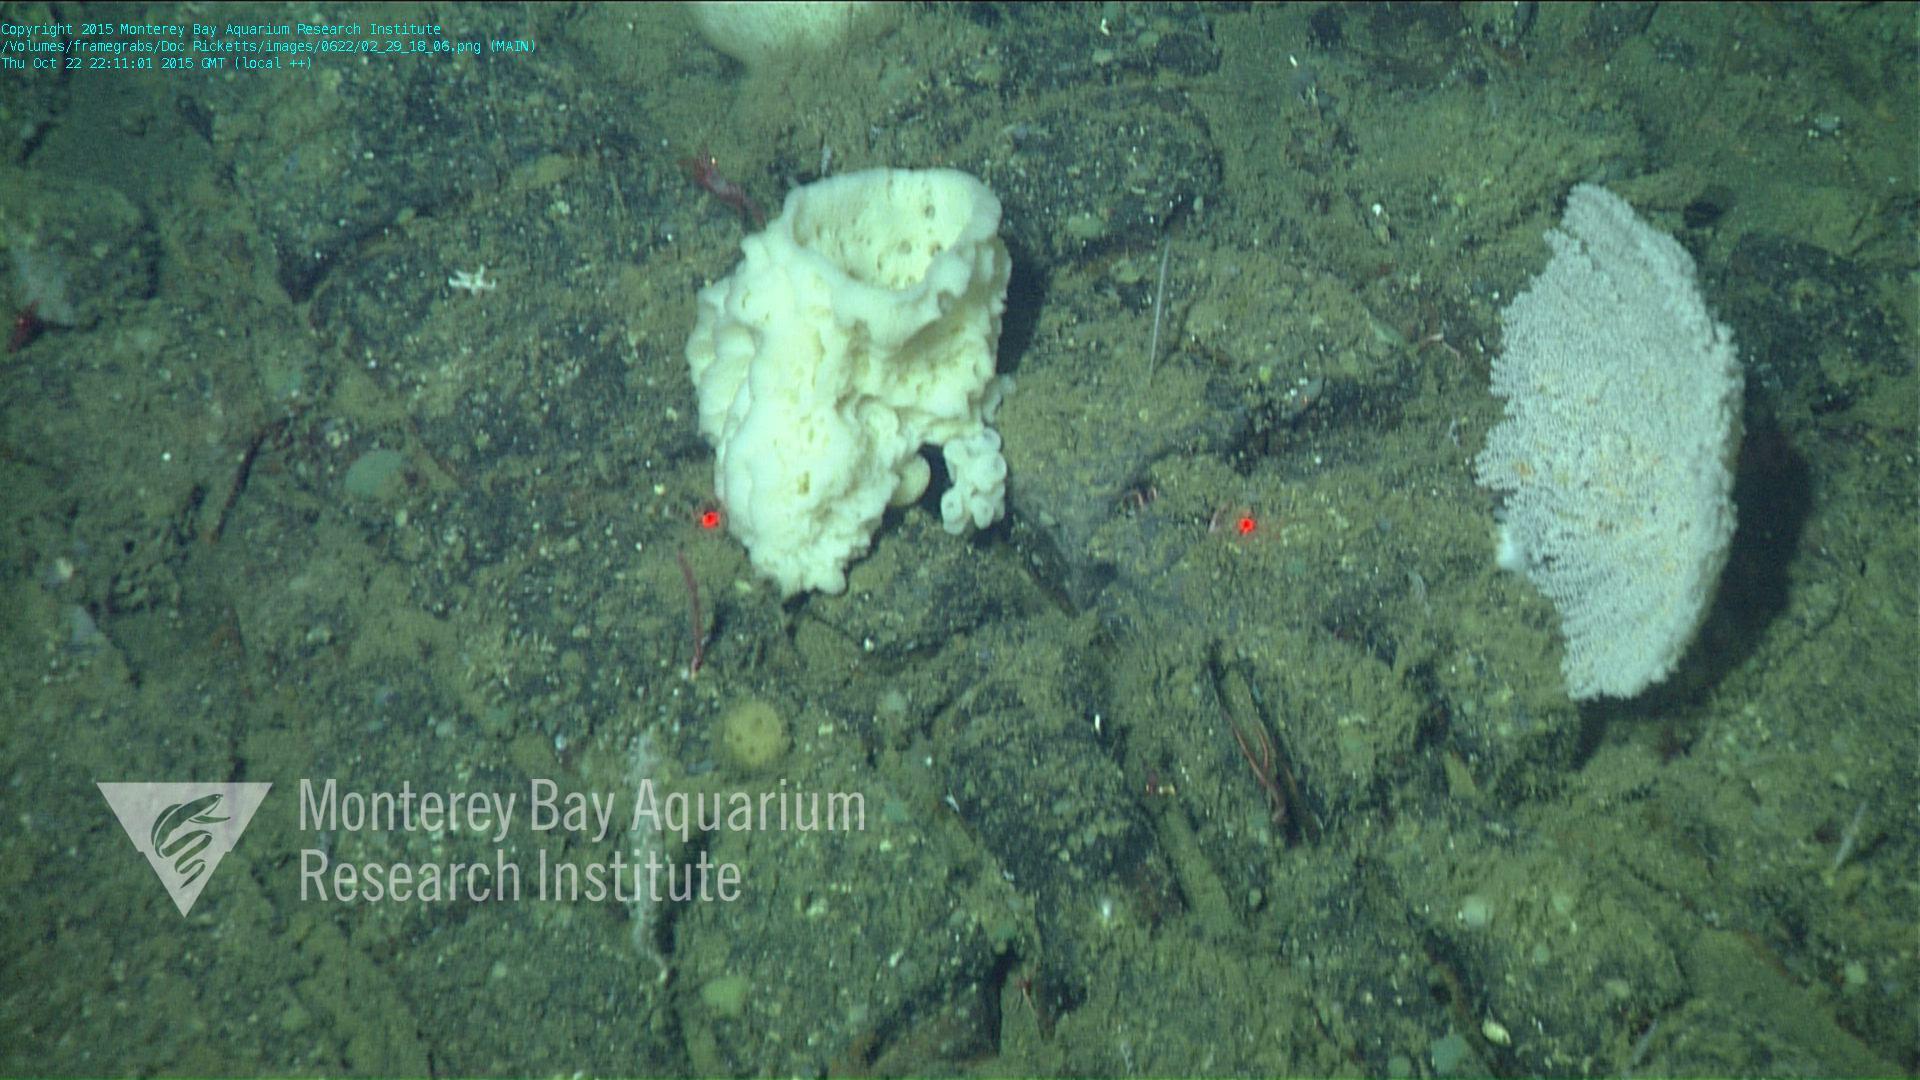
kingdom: Animalia
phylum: Cnidaria
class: Anthozoa
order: Scleralcyonacea
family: Primnoidae
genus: Parastenella
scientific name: Parastenella
